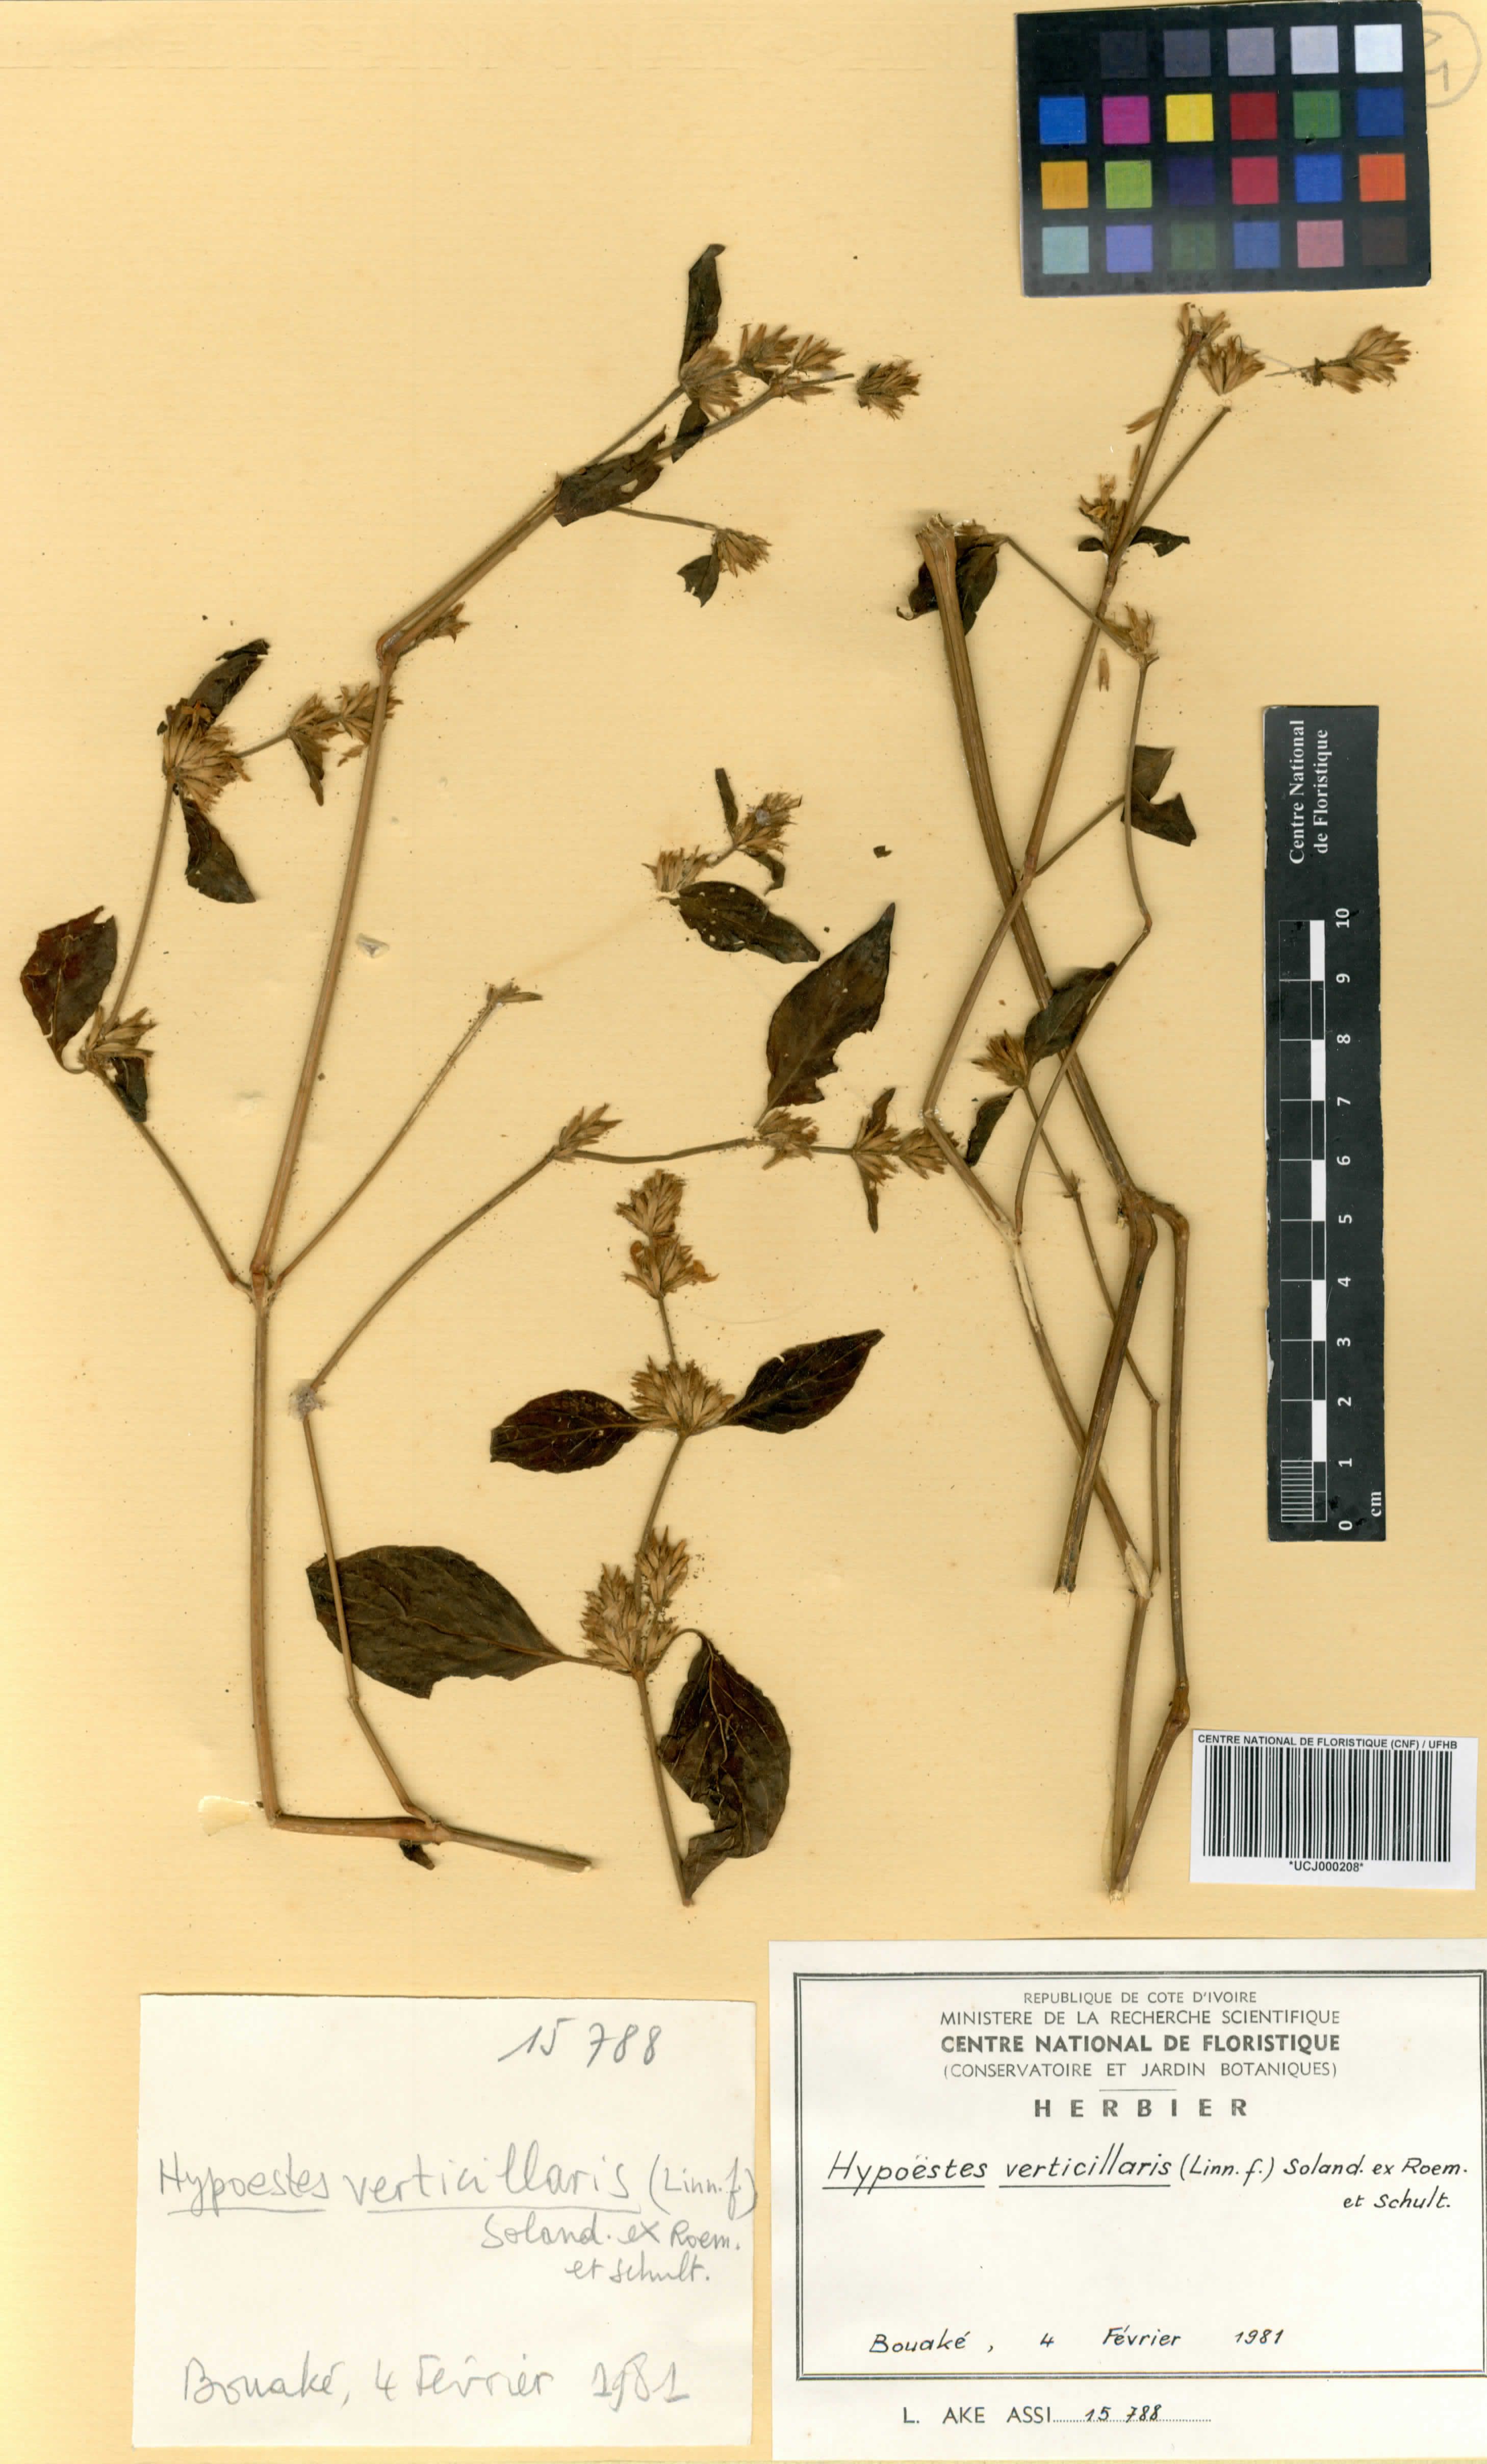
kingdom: Plantae
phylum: Tracheophyta
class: Magnoliopsida
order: Lamiales
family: Acanthaceae
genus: Hypoestes
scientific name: Hypoestes aristata
